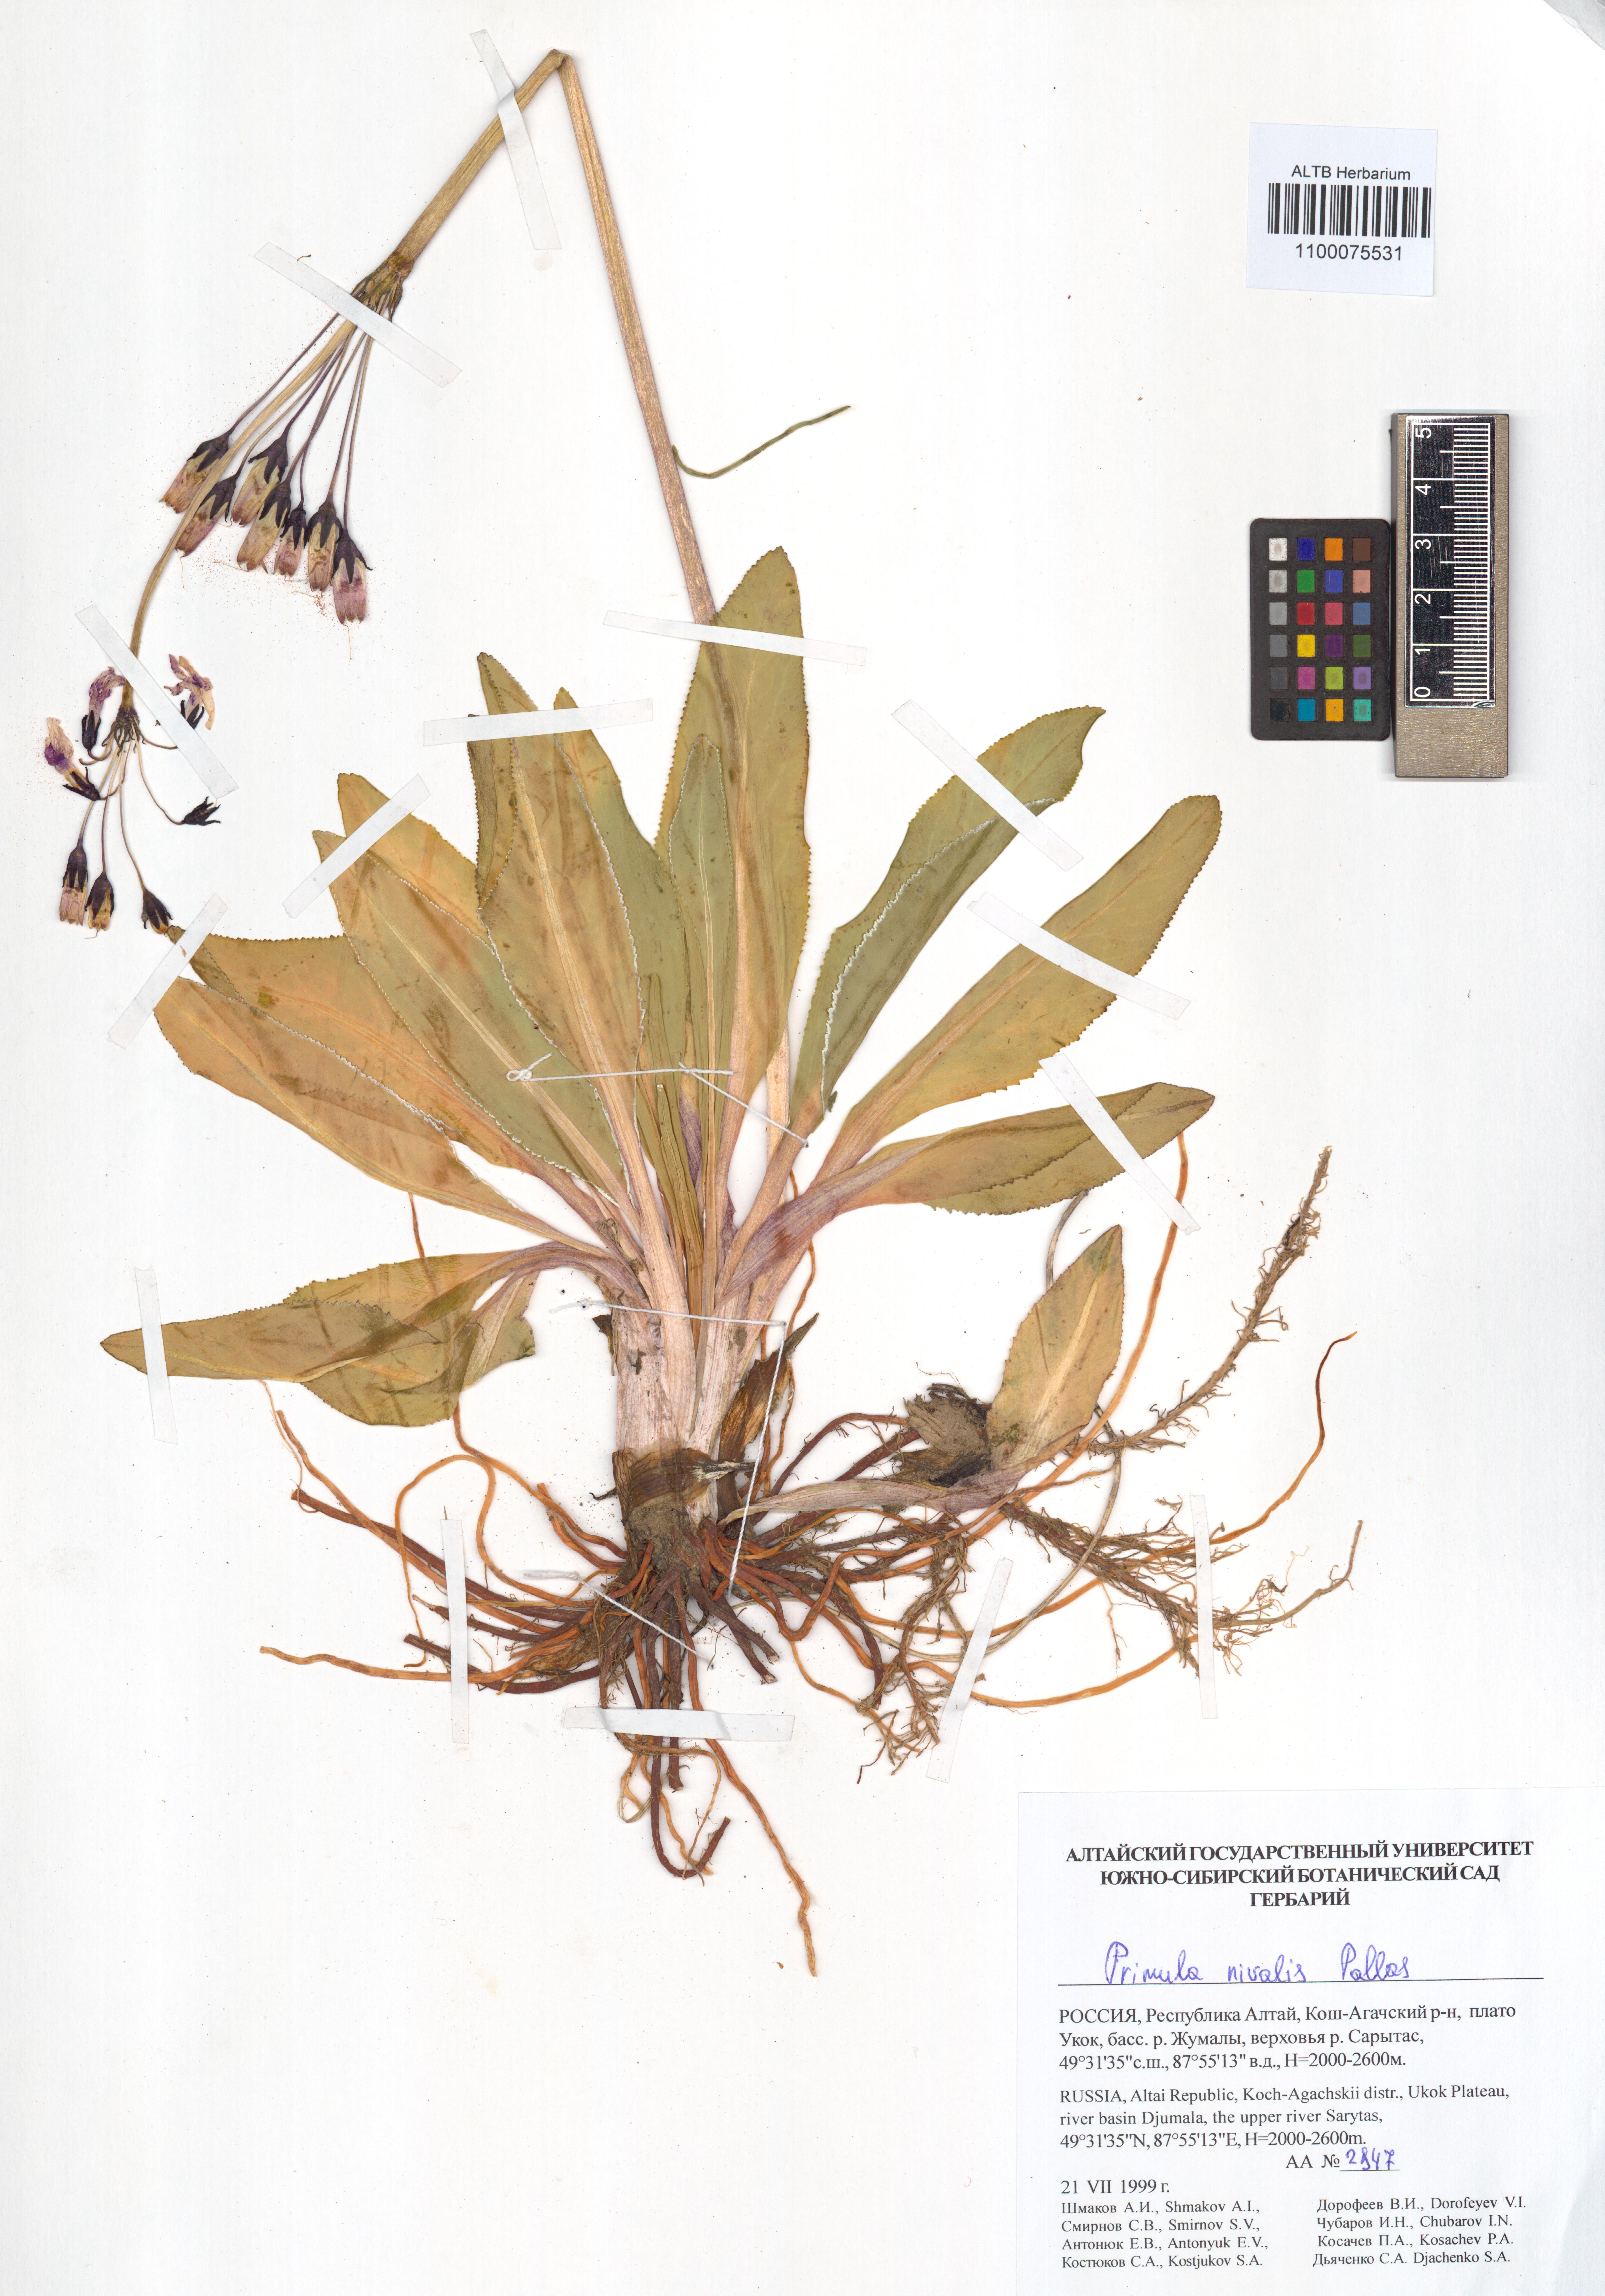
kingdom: Plantae
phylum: Tracheophyta
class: Magnoliopsida
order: Ericales
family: Primulaceae
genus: Primula
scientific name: Primula nivalis
